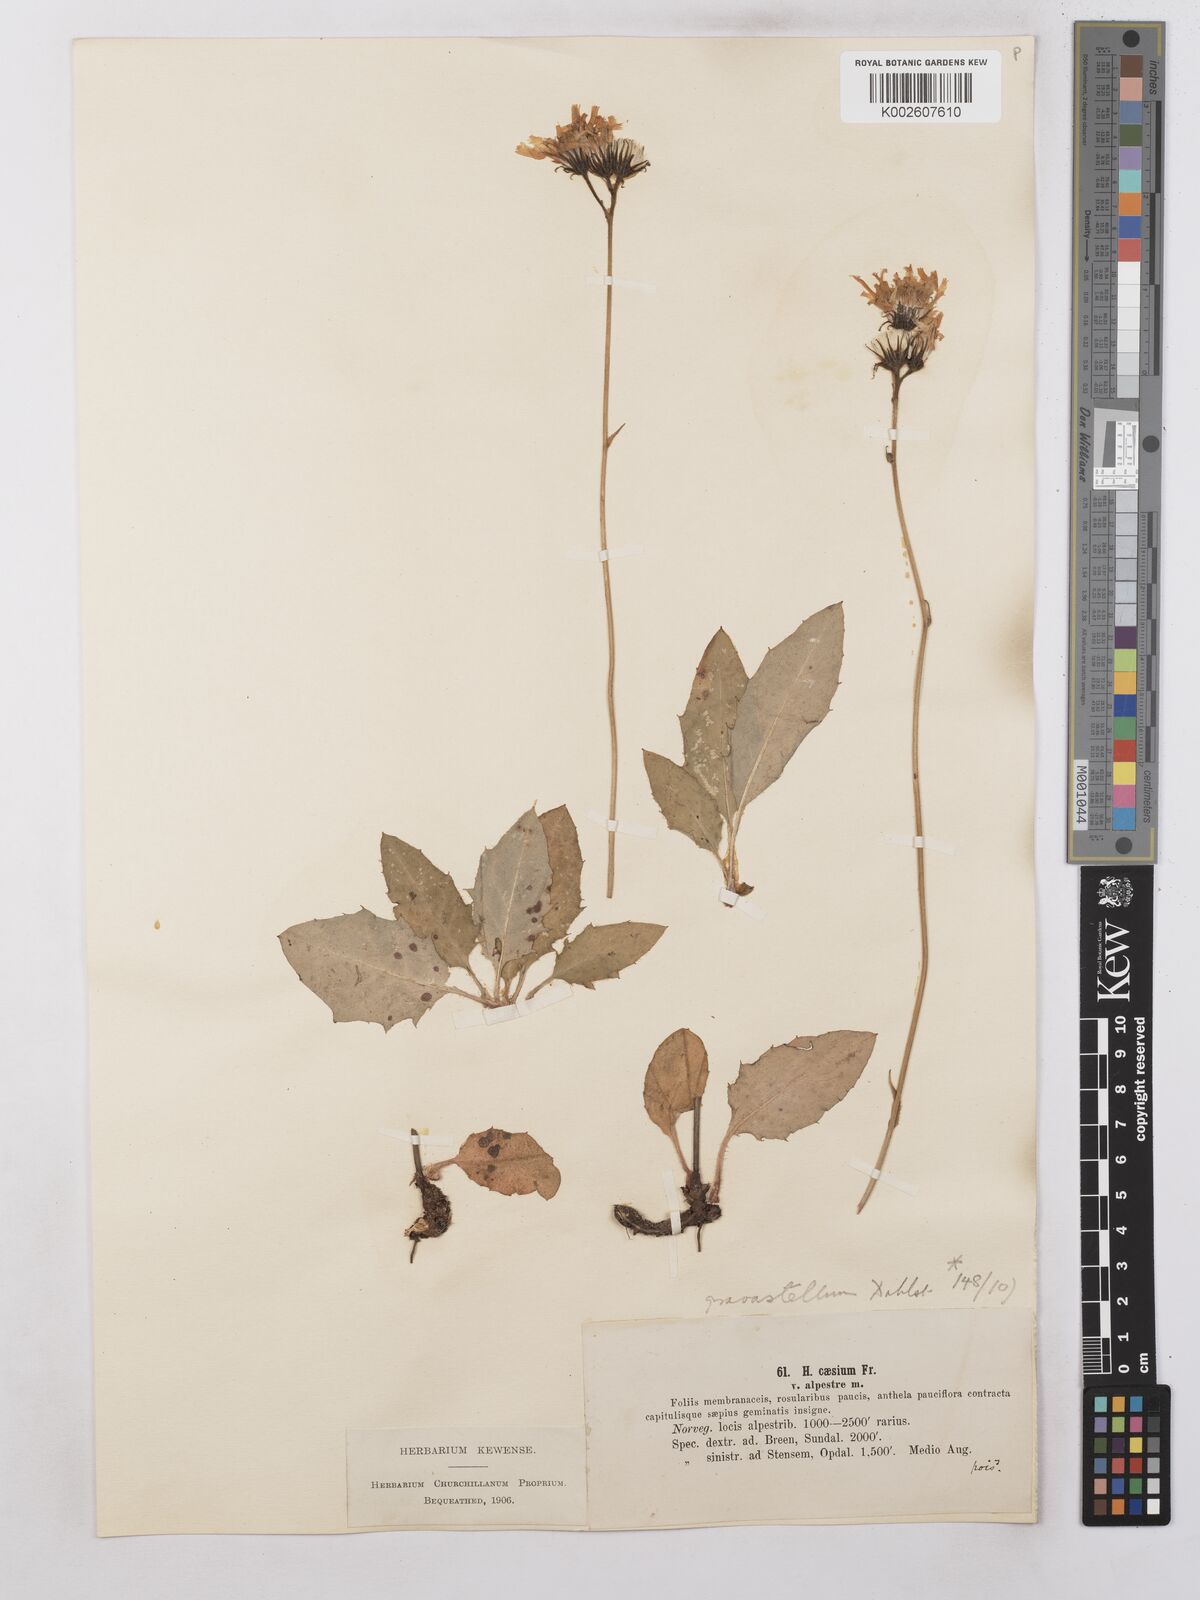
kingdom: Plantae
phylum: Tracheophyta
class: Magnoliopsida
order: Asterales
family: Asteraceae
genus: Hieracium
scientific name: Hieracium subramosum
